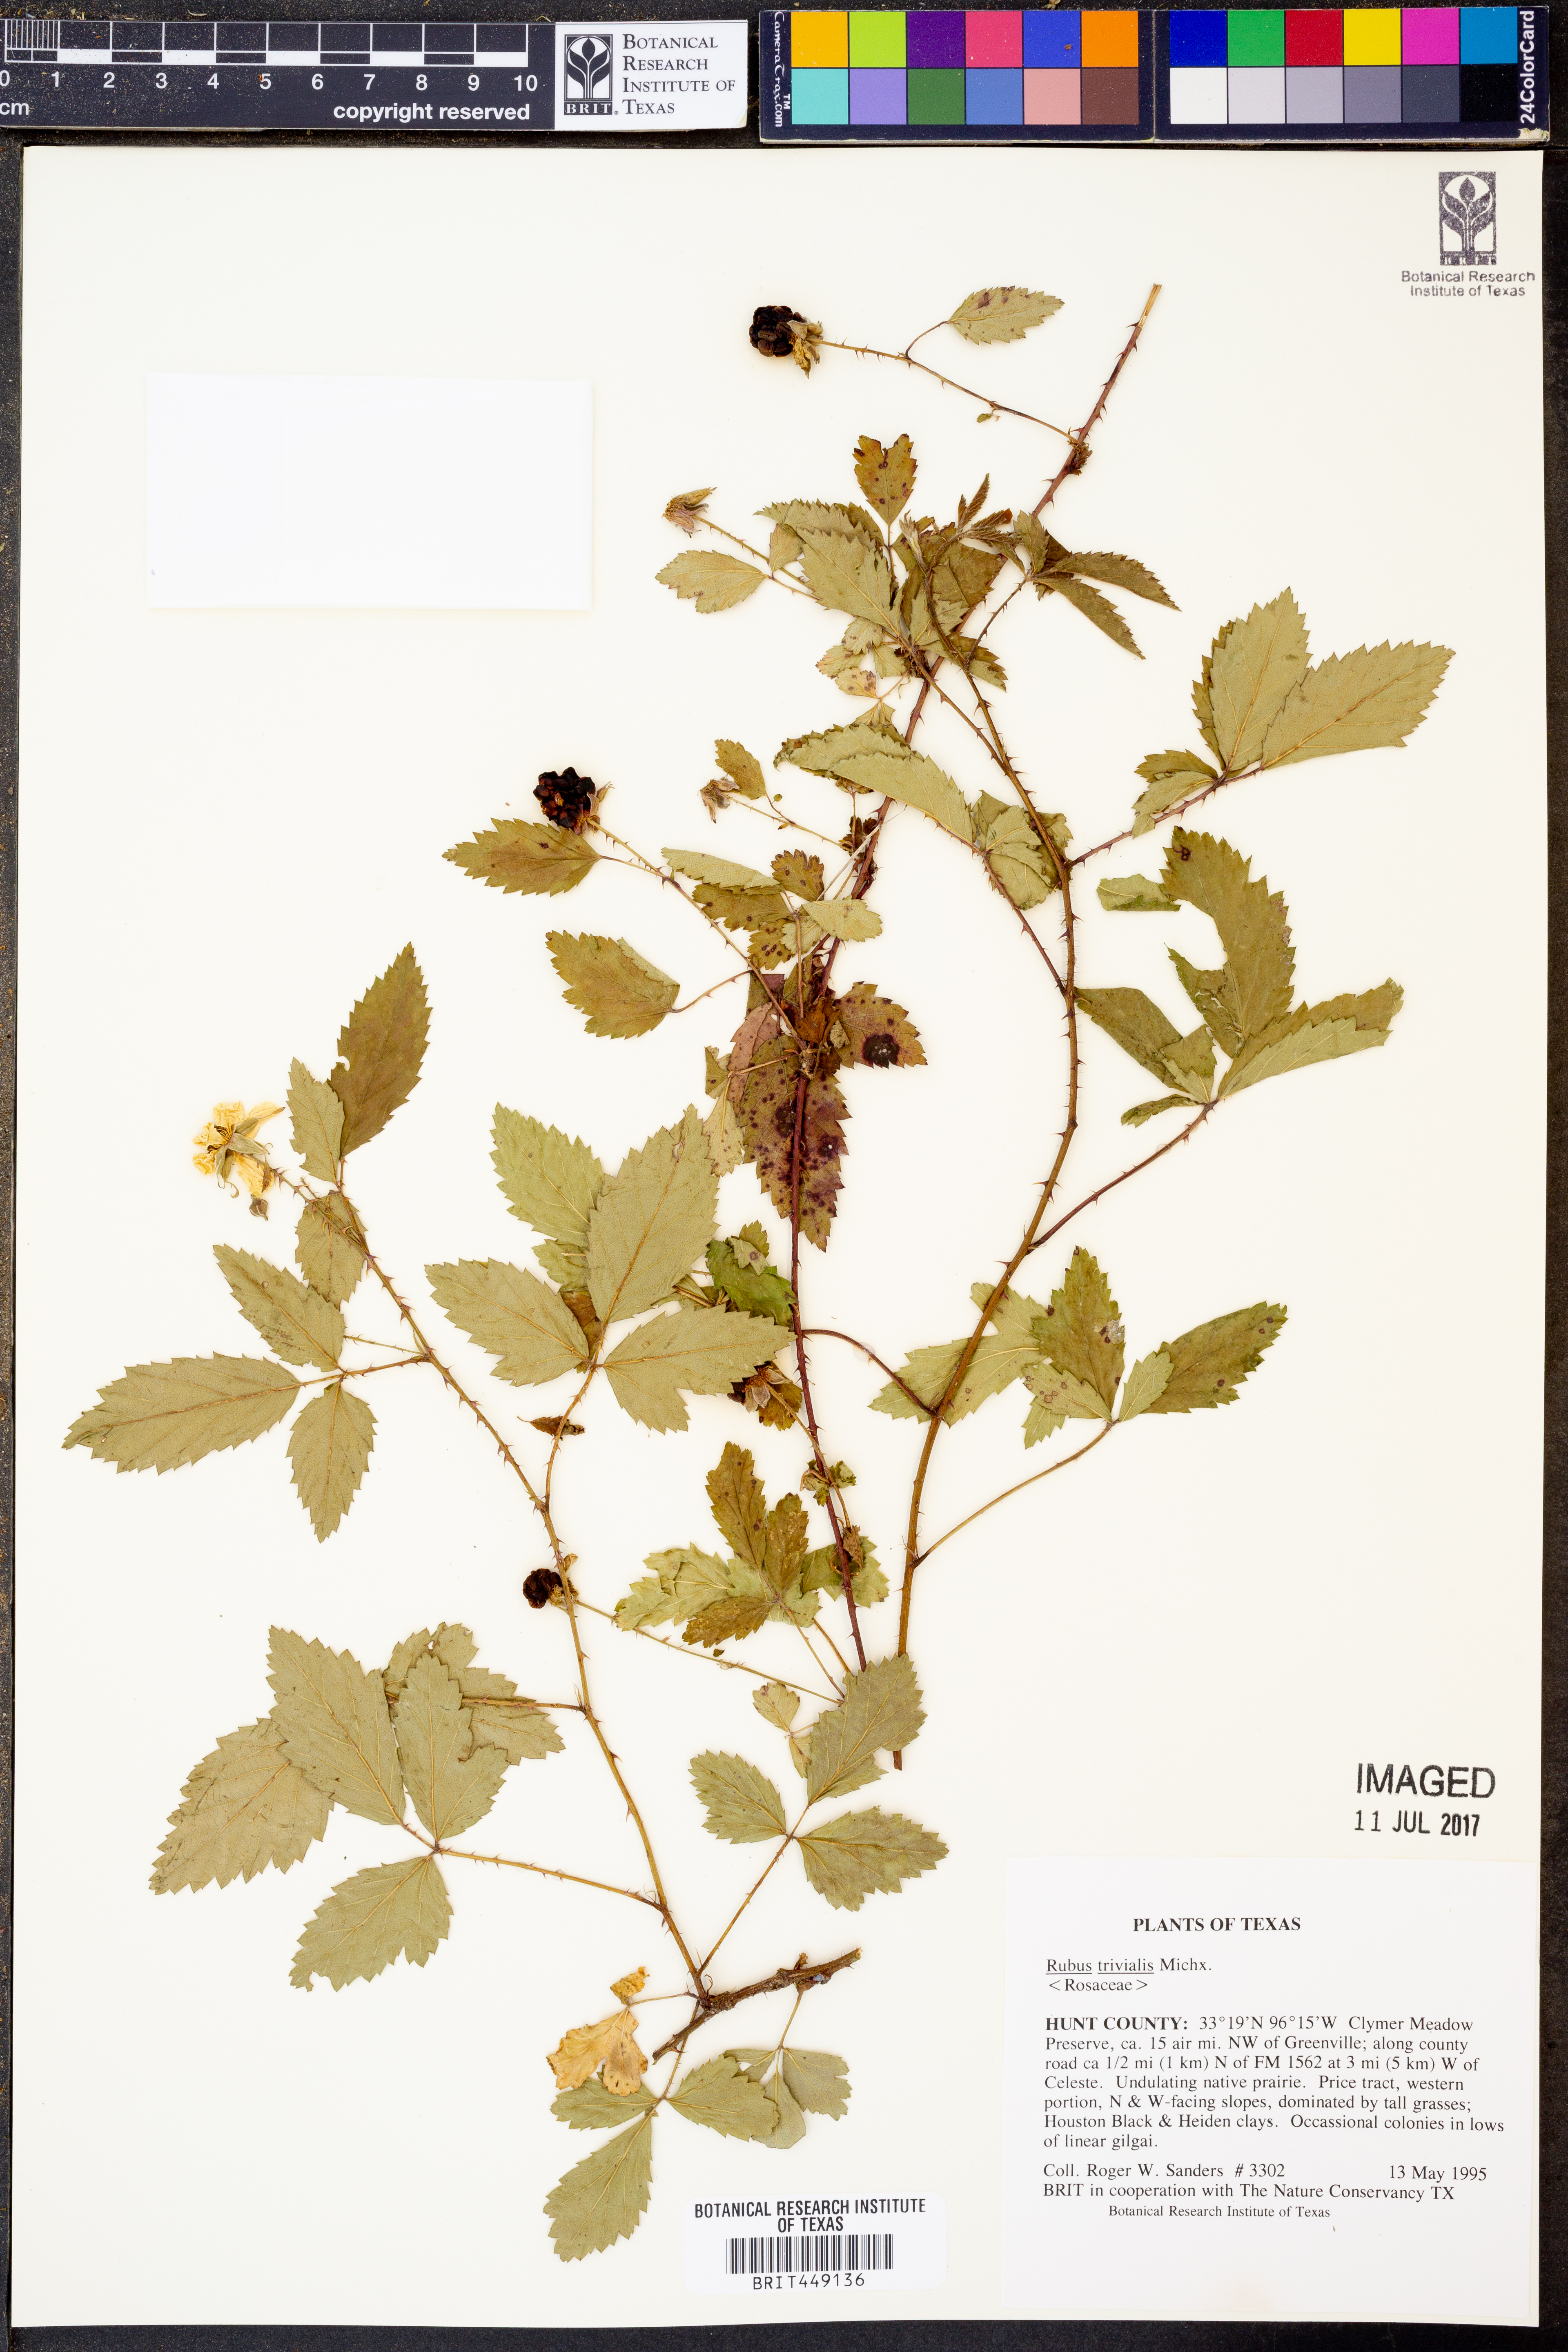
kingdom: Plantae
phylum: Tracheophyta
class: Magnoliopsida
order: Rosales
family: Rosaceae
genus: Rubus
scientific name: Rubus trivialis
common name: Southern dewberry
